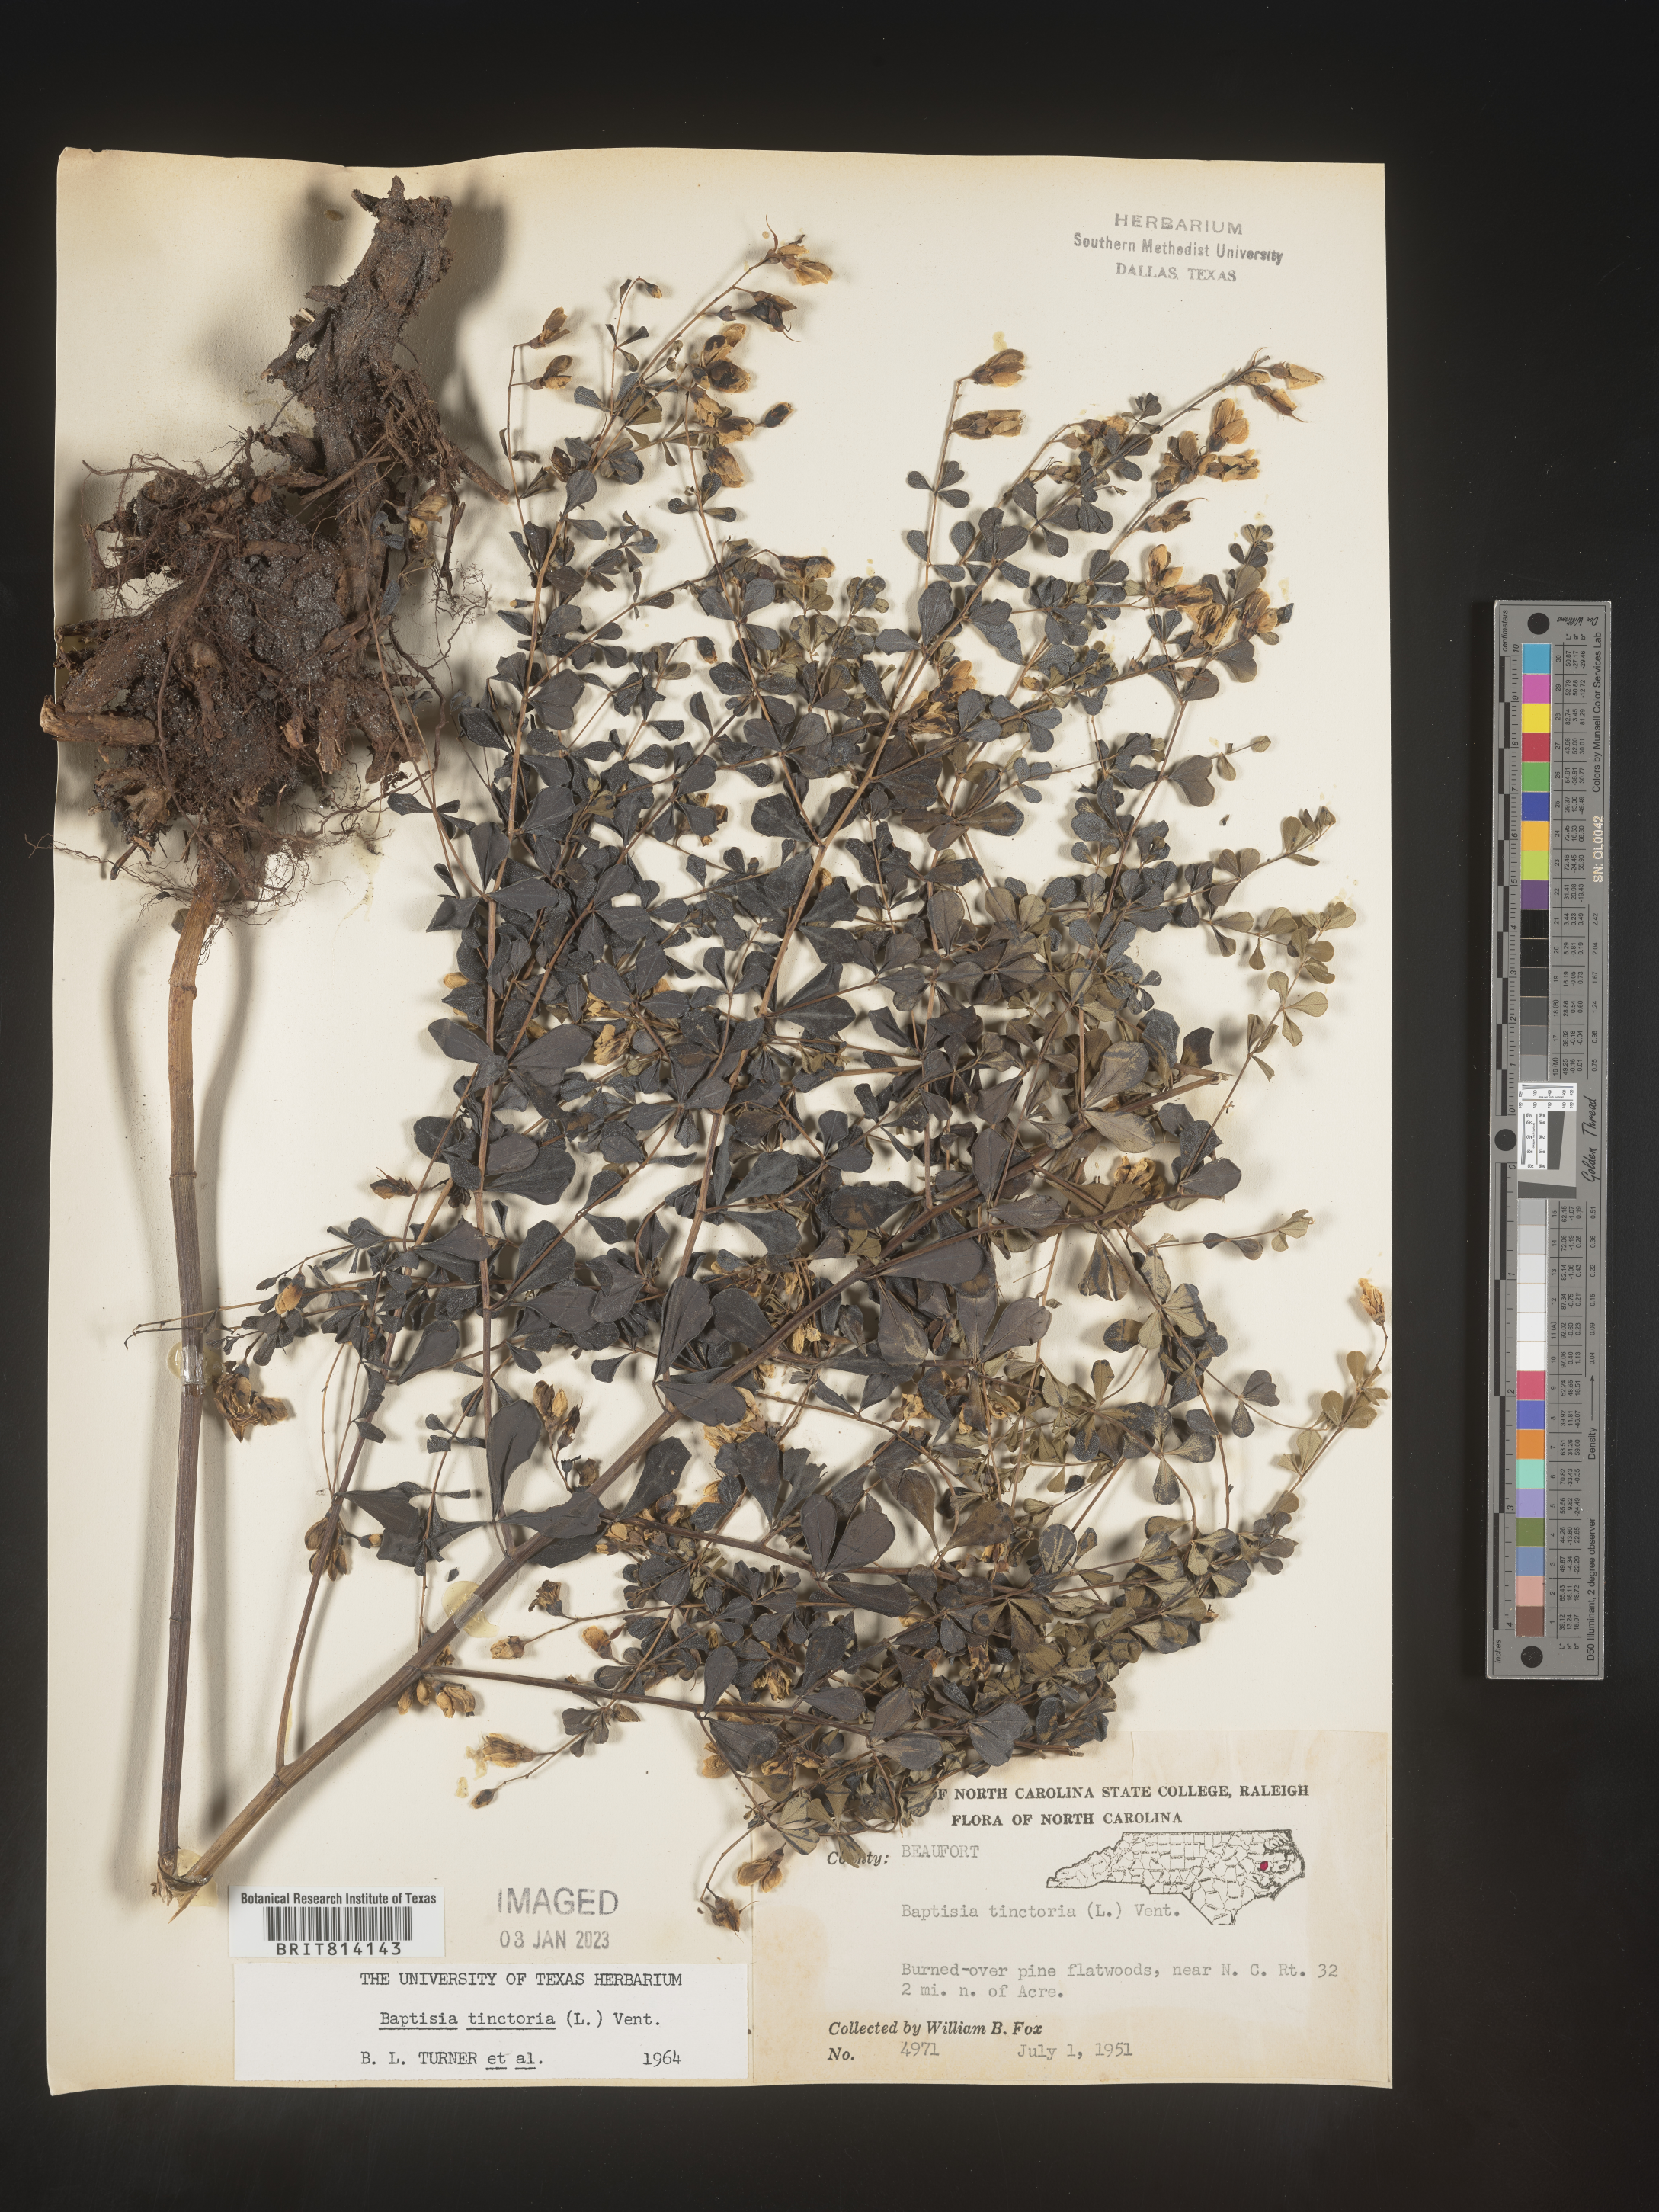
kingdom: Plantae
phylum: Tracheophyta
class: Magnoliopsida
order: Fabales
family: Fabaceae
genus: Baptisia
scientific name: Baptisia tinctoria
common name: Wild indigo
